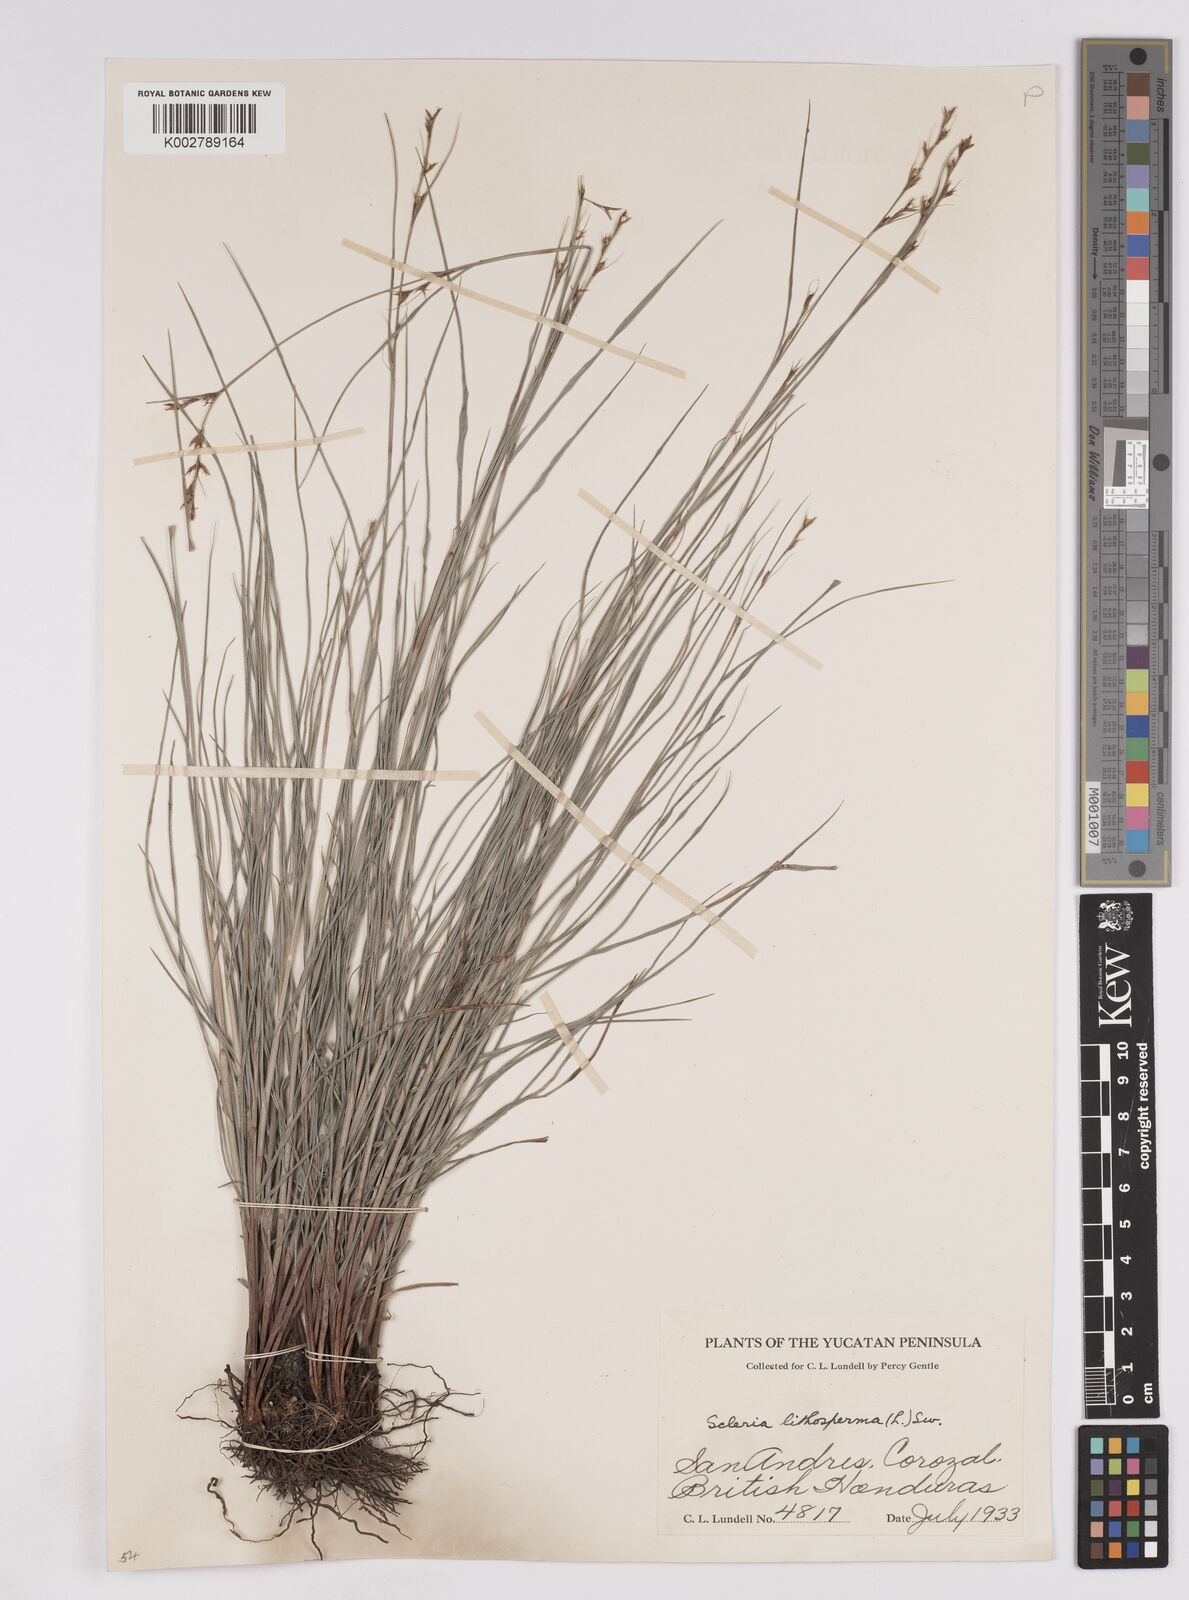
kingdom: Plantae
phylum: Tracheophyta
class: Liliopsida
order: Poales
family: Cyperaceae
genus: Scleria
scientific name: Scleria lithosperma
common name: Florida keys nut-rush
